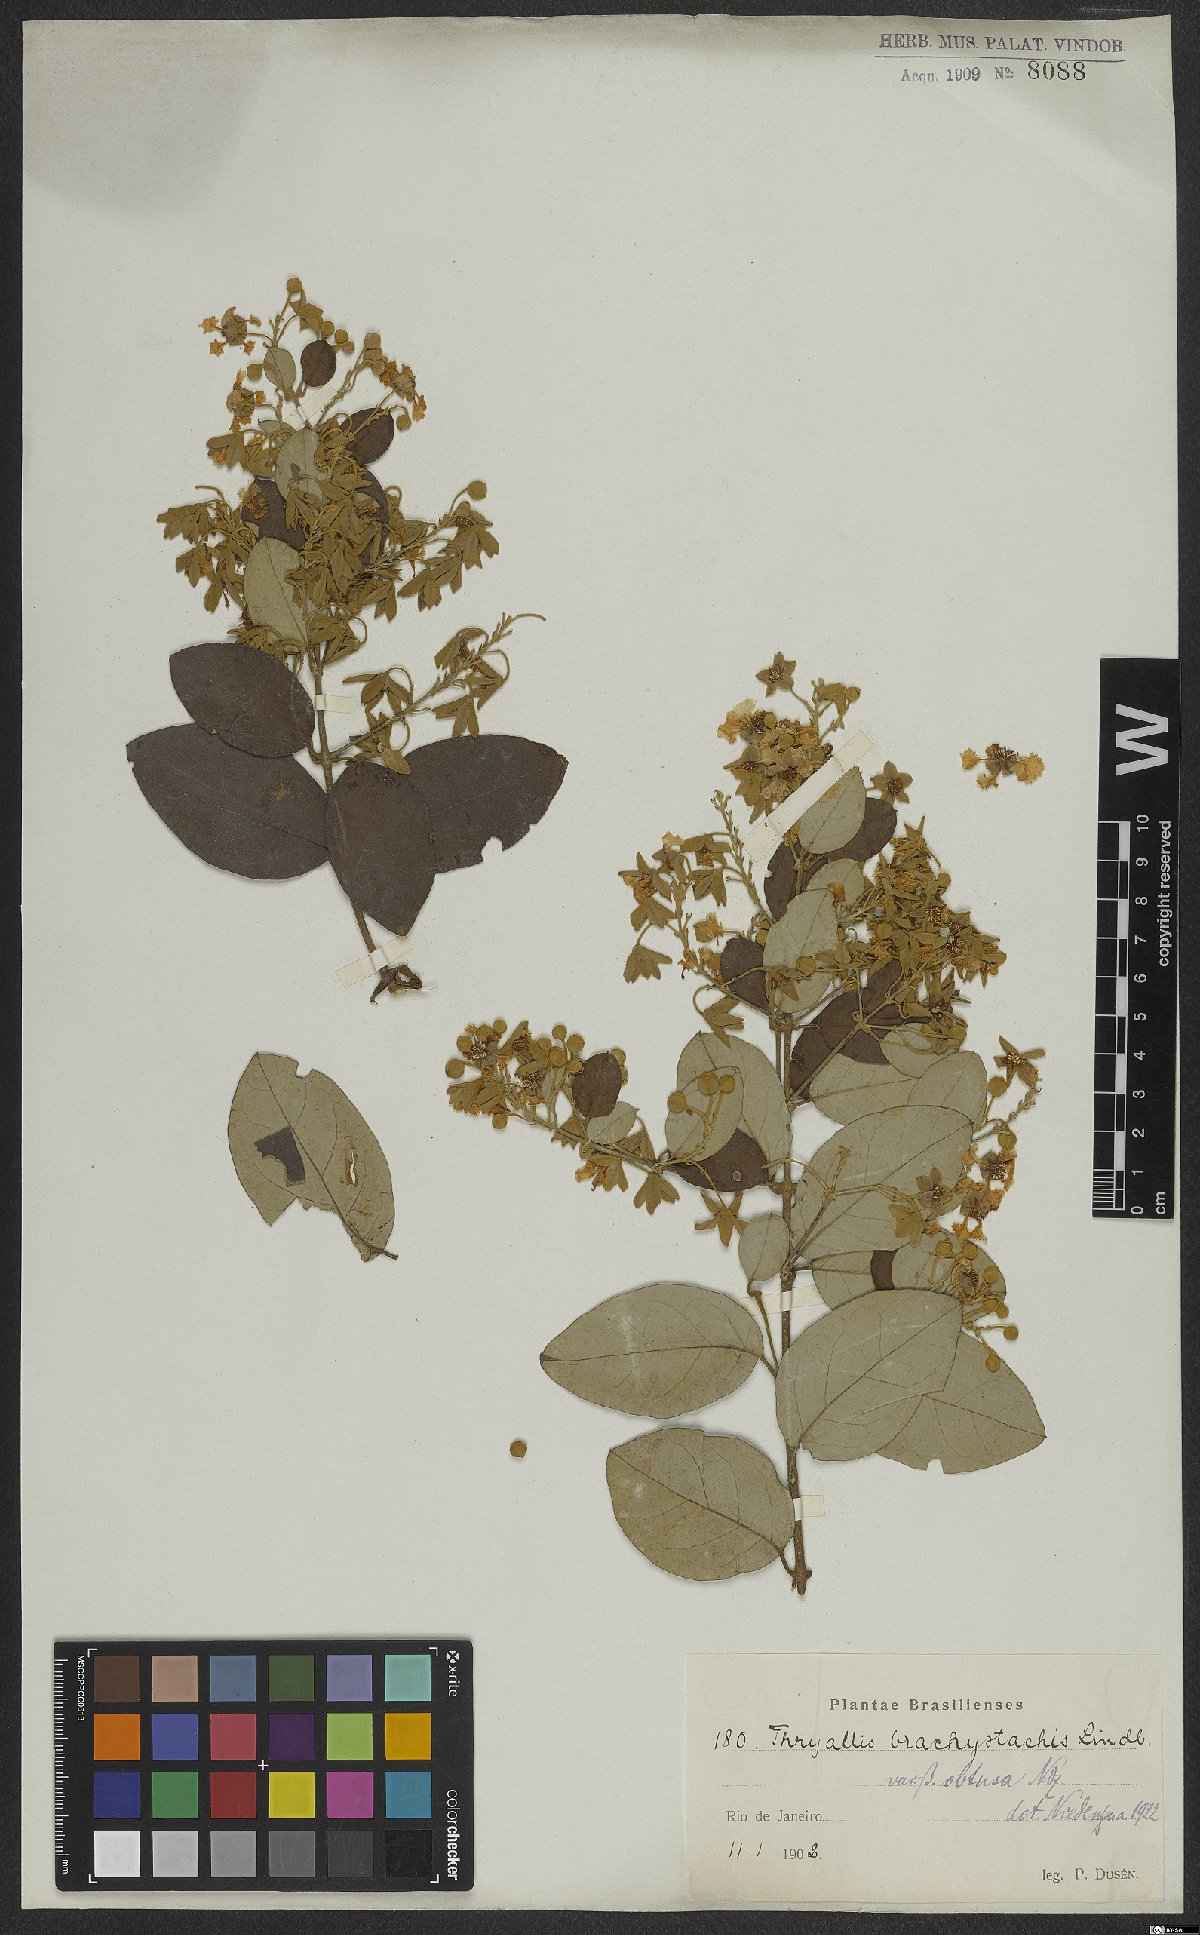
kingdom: Plantae
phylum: Tracheophyta
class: Magnoliopsida
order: Malpighiales
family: Malpighiaceae
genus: Thryallis
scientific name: Thryallis brachystachys
